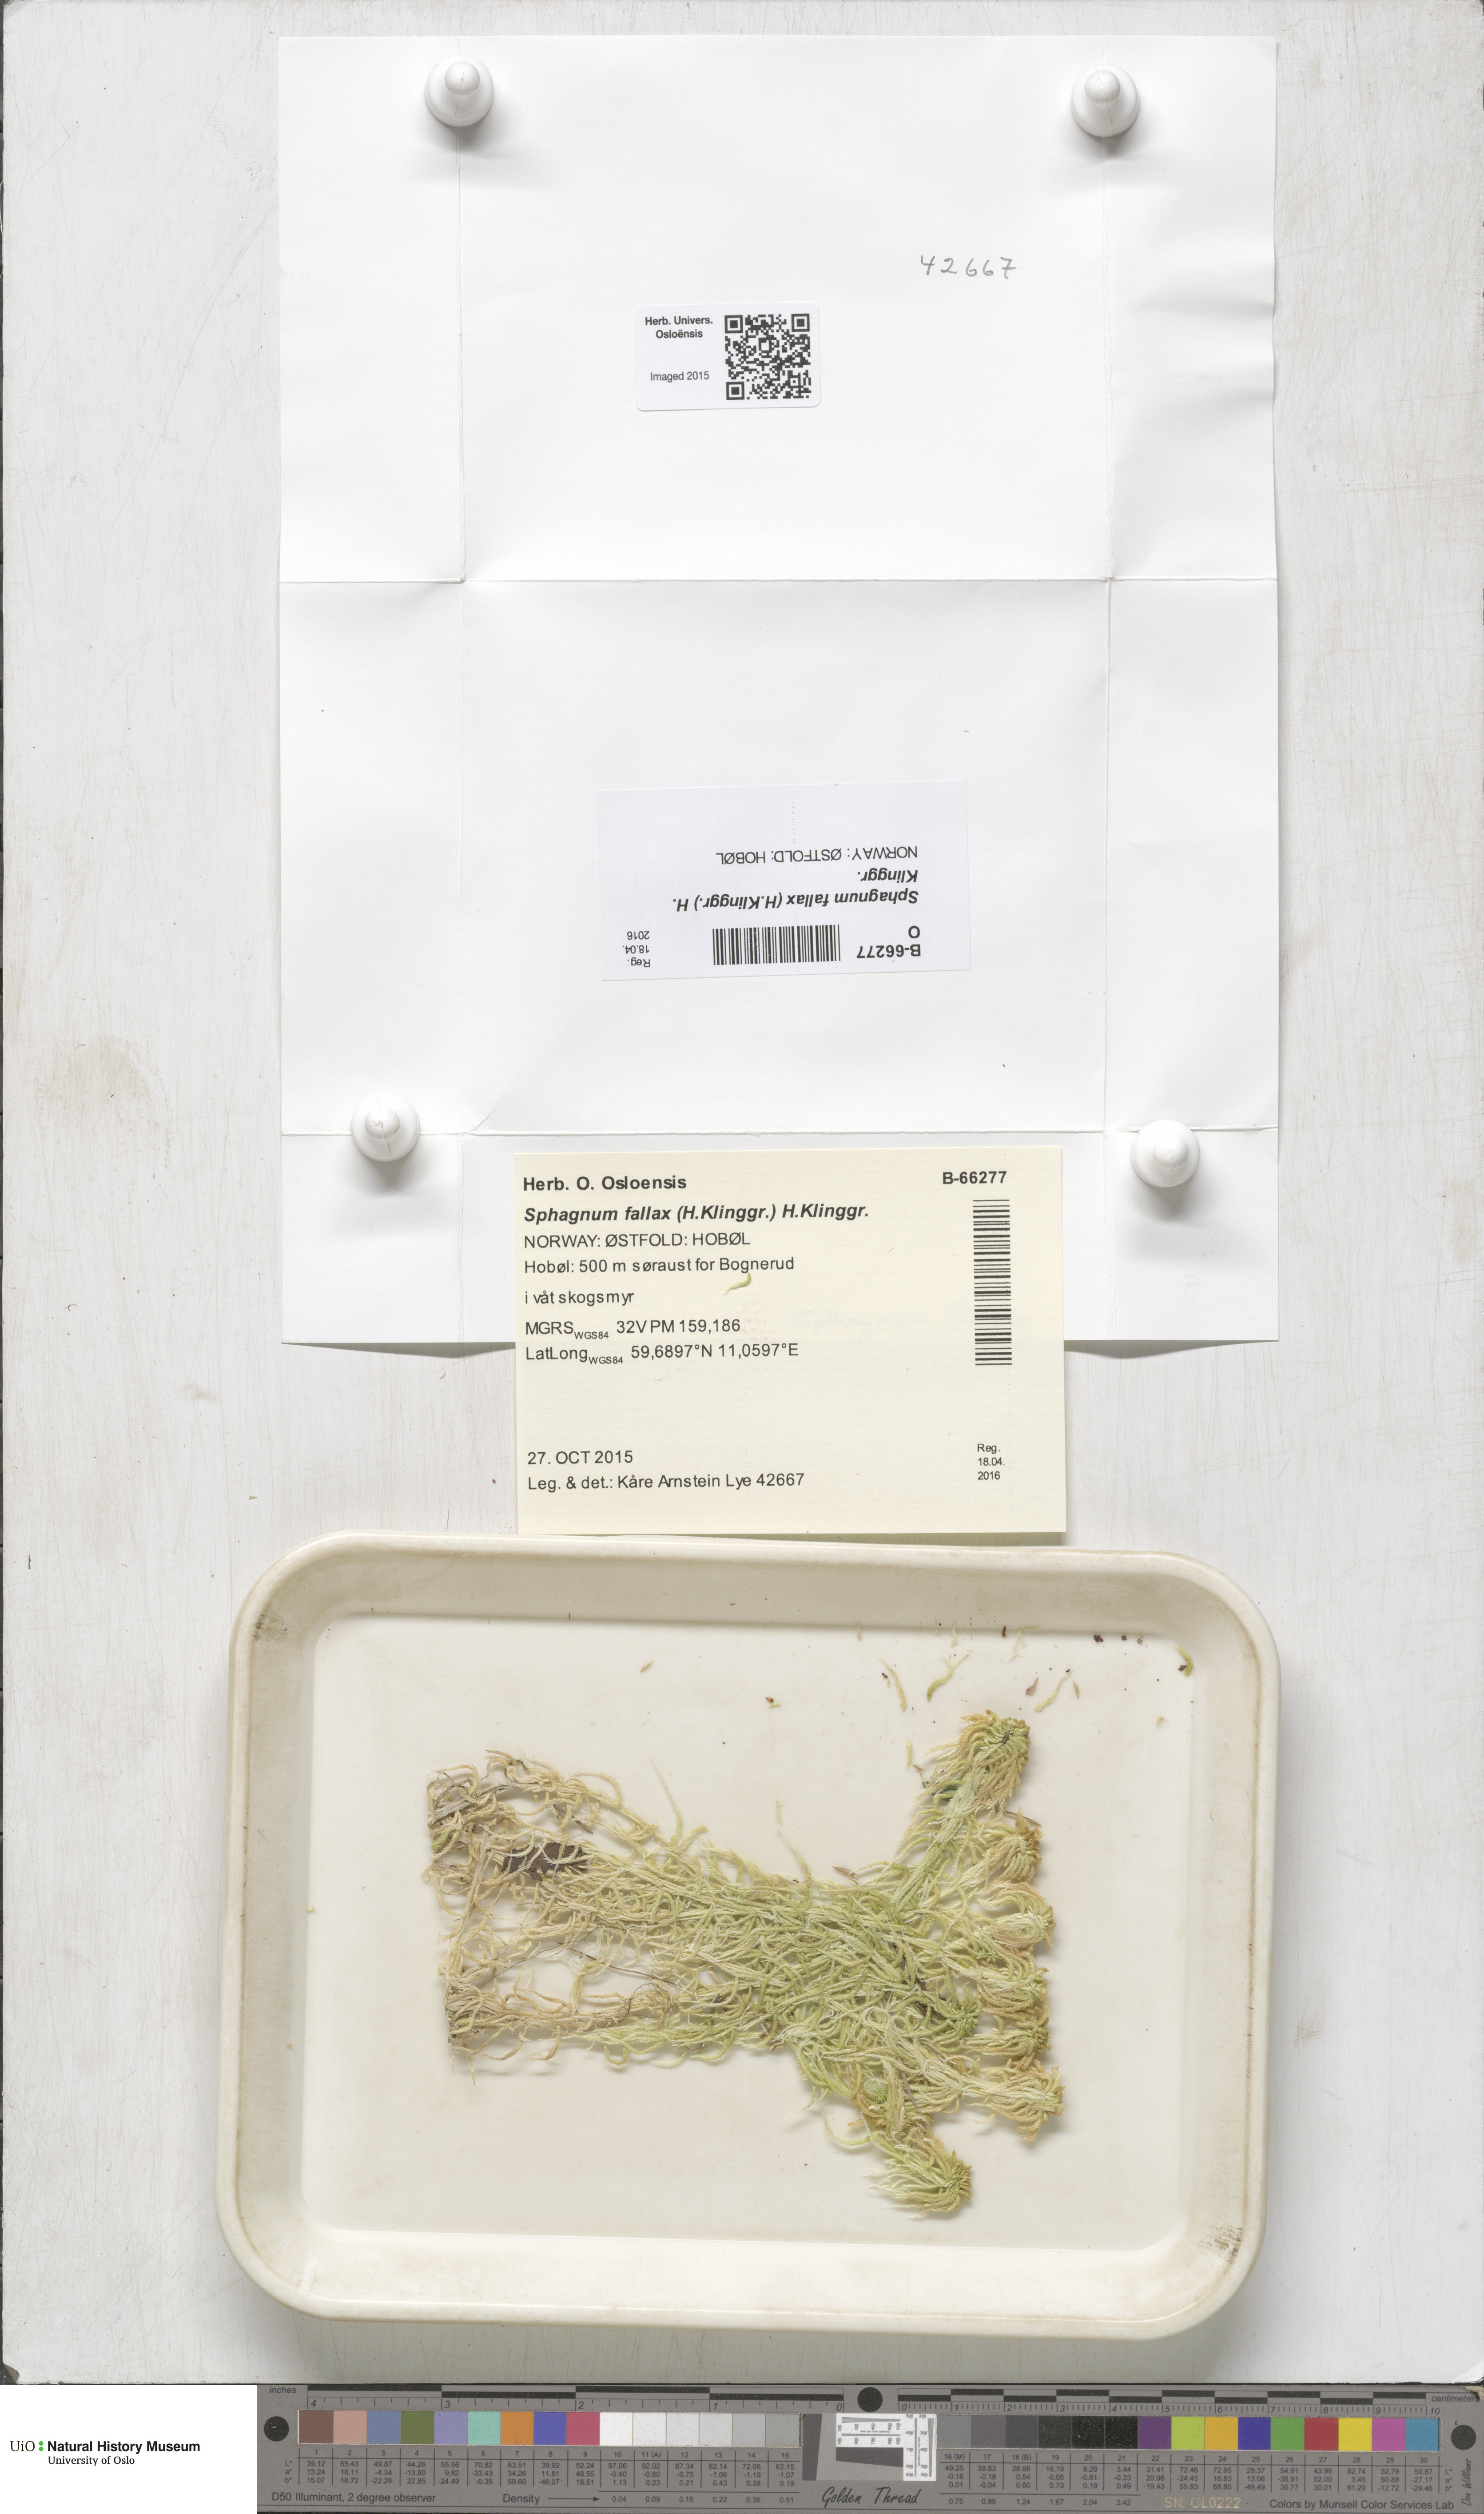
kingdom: Plantae
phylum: Bryophyta
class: Sphagnopsida
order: Sphagnales
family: Sphagnaceae
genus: Sphagnum
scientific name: Sphagnum fallax
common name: Flat-top peat moss
